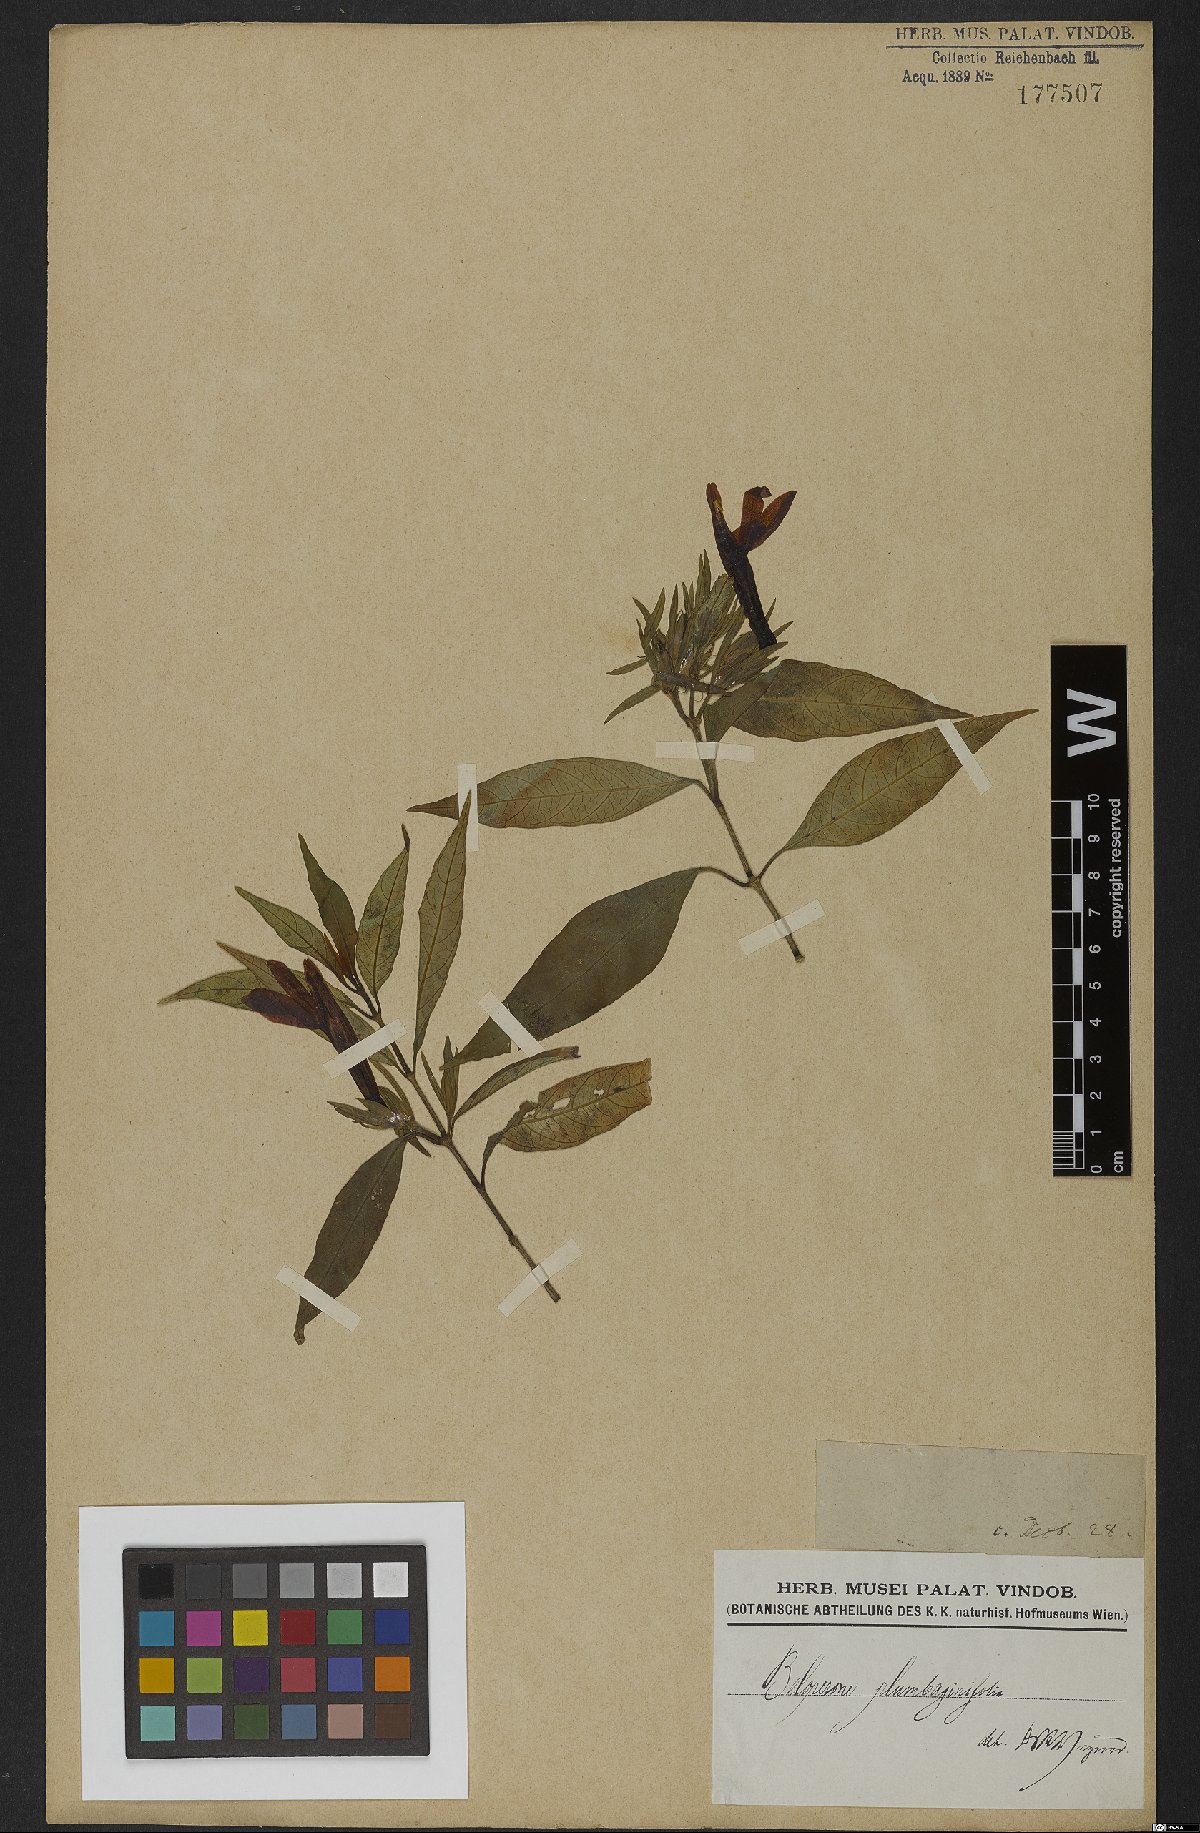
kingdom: Plantae
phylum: Tracheophyta
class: Magnoliopsida
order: Lamiales
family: Acanthaceae
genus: Justicia
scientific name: Justicia plumbaginifolia
